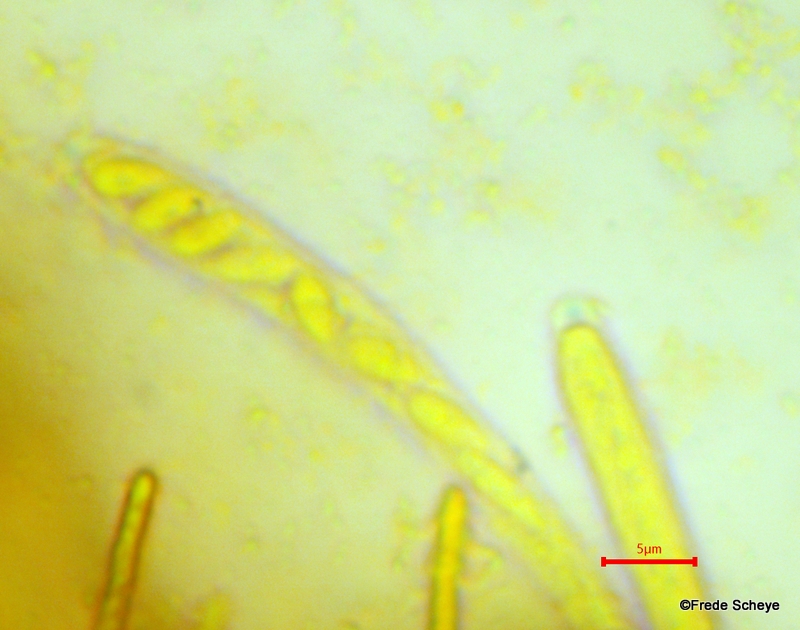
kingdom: Fungi
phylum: Ascomycota
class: Leotiomycetes
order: Helotiales
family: Helotiaceae
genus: Bisporella
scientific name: Bisporella subpallida
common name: lys snitskive
